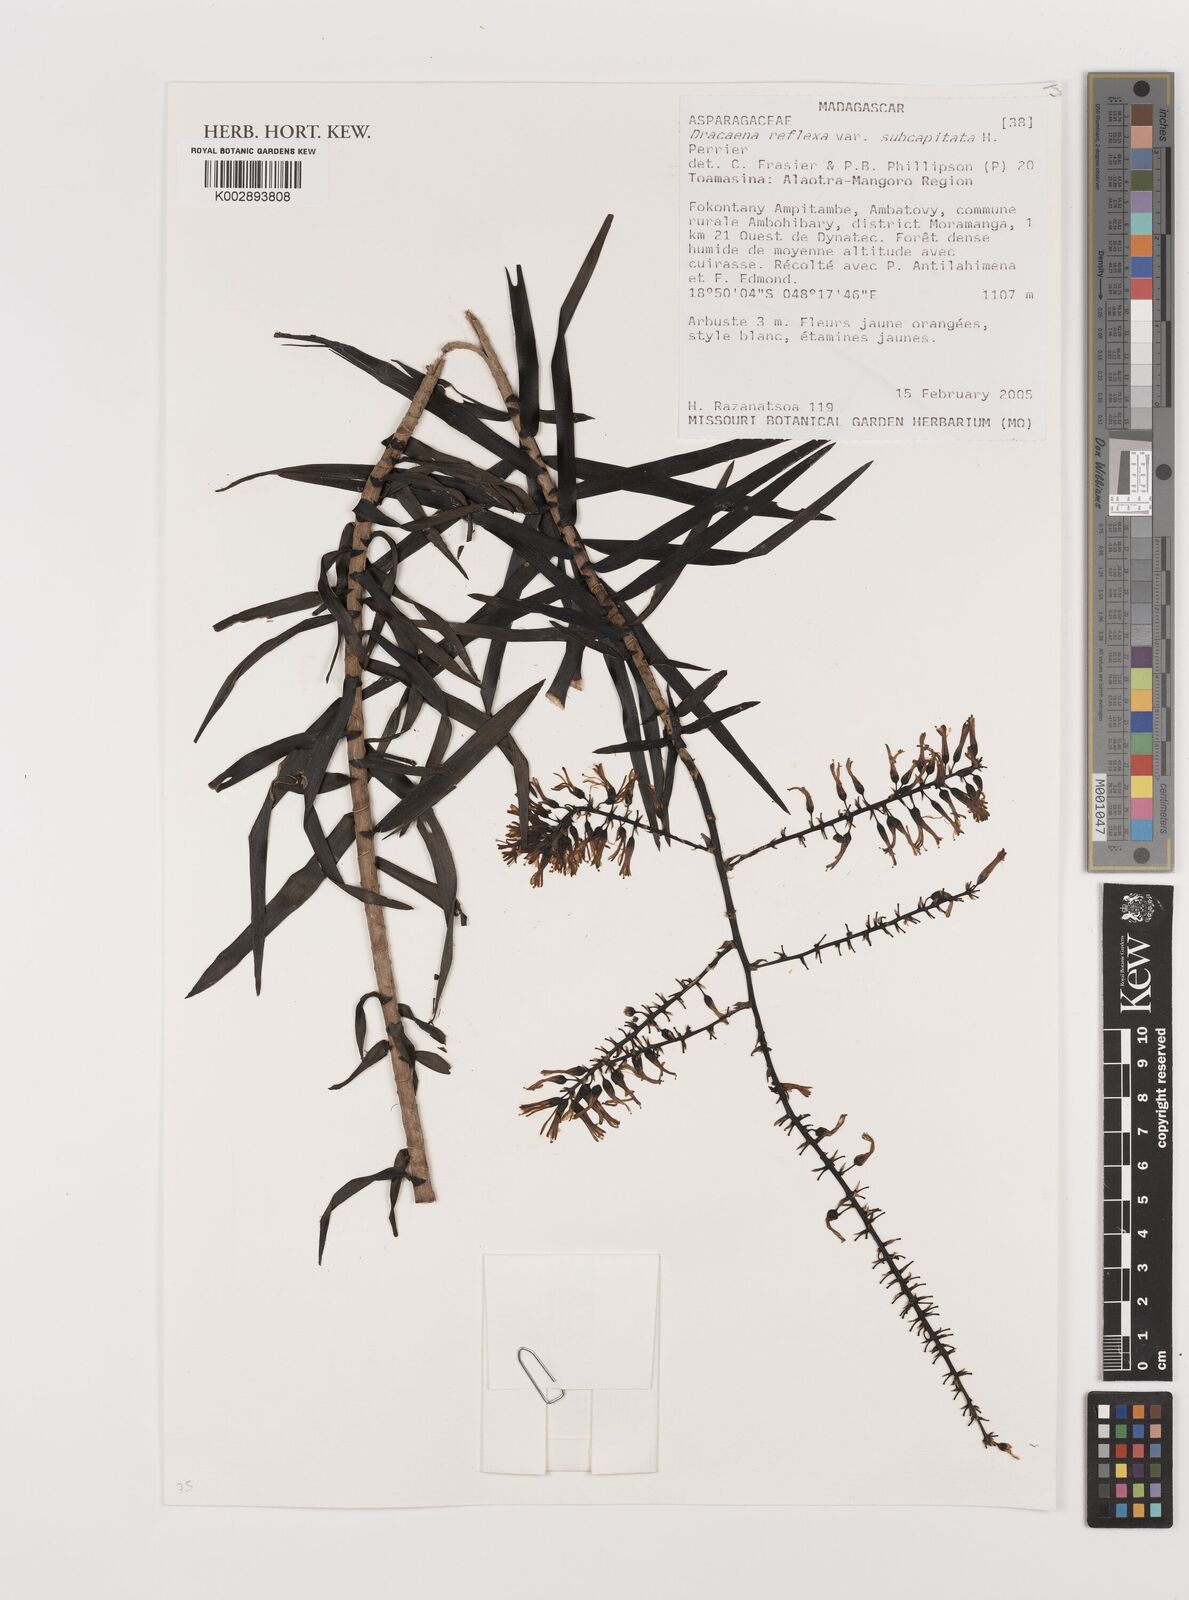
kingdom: Plantae
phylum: Tracheophyta
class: Liliopsida
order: Asparagales
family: Asparagaceae
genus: Dracaena
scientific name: Dracaena reflexa
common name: Song-of-india
